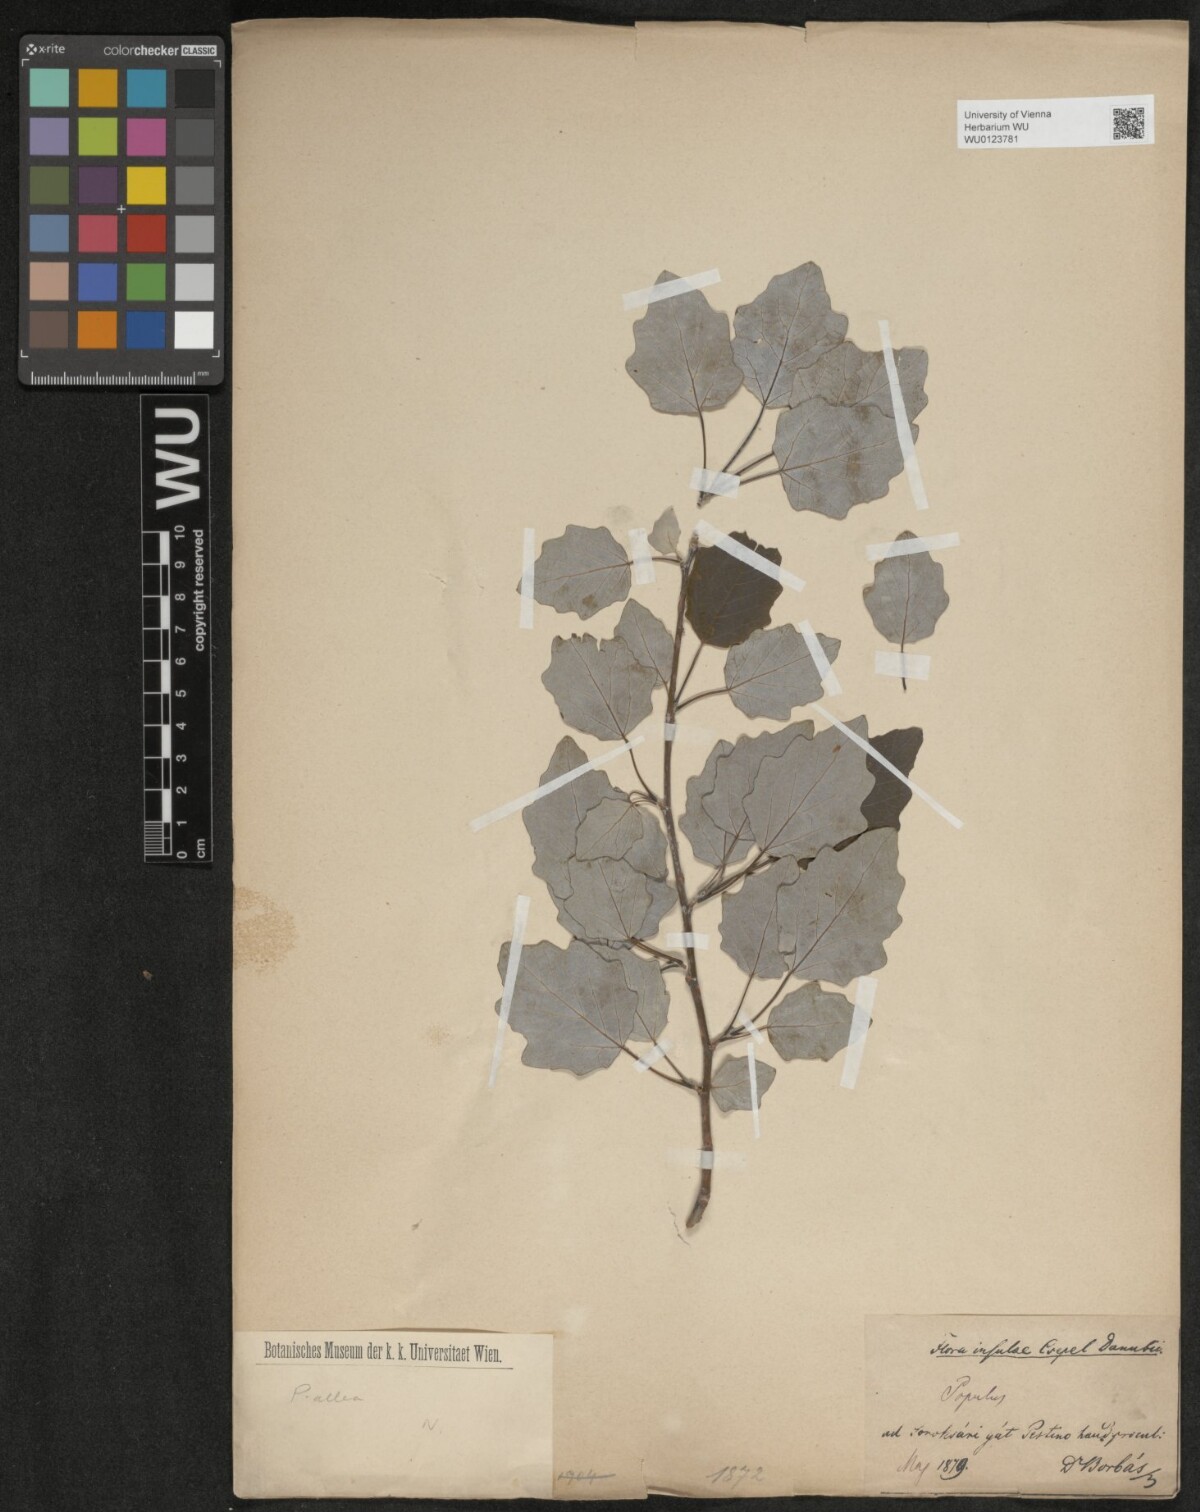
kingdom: Plantae
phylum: Tracheophyta
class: Magnoliopsida
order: Malpighiales
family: Salicaceae
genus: Populus
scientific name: Populus alba
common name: White poplar
